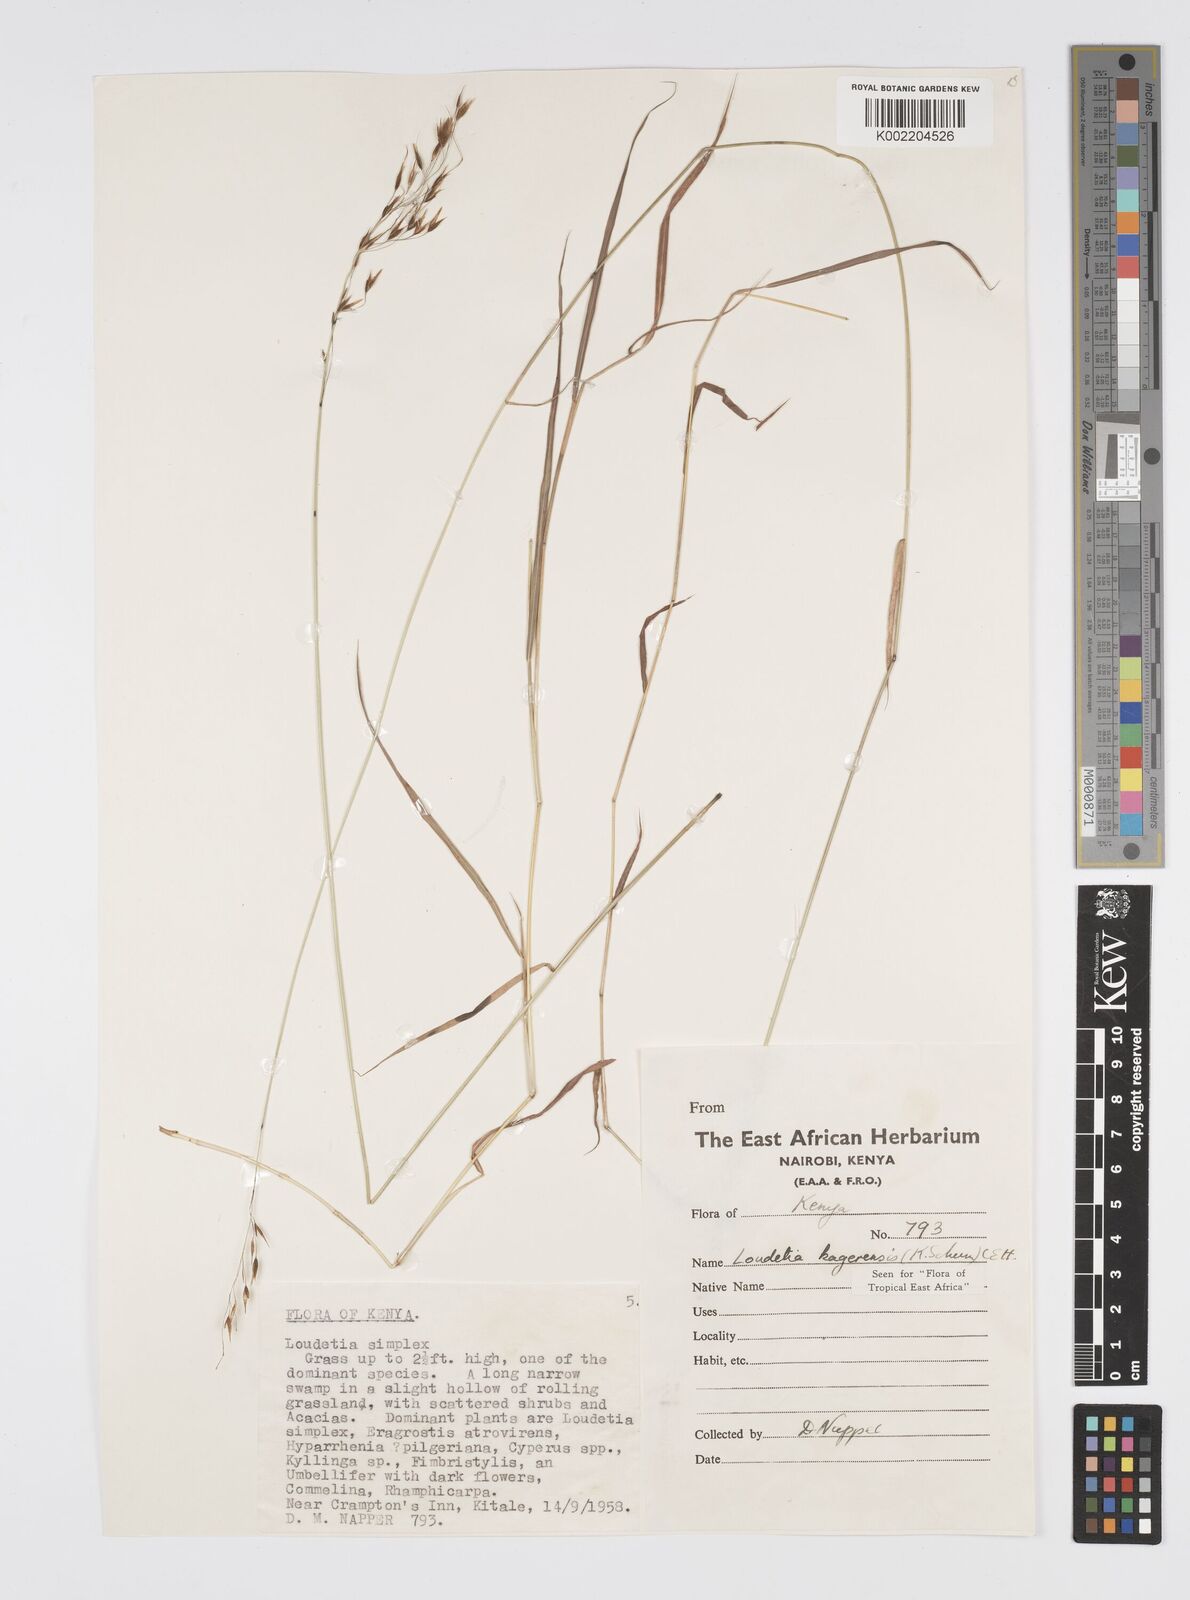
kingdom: Plantae
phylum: Tracheophyta
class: Liliopsida
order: Poales
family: Poaceae
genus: Loudetia
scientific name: Loudetia kagerensis
